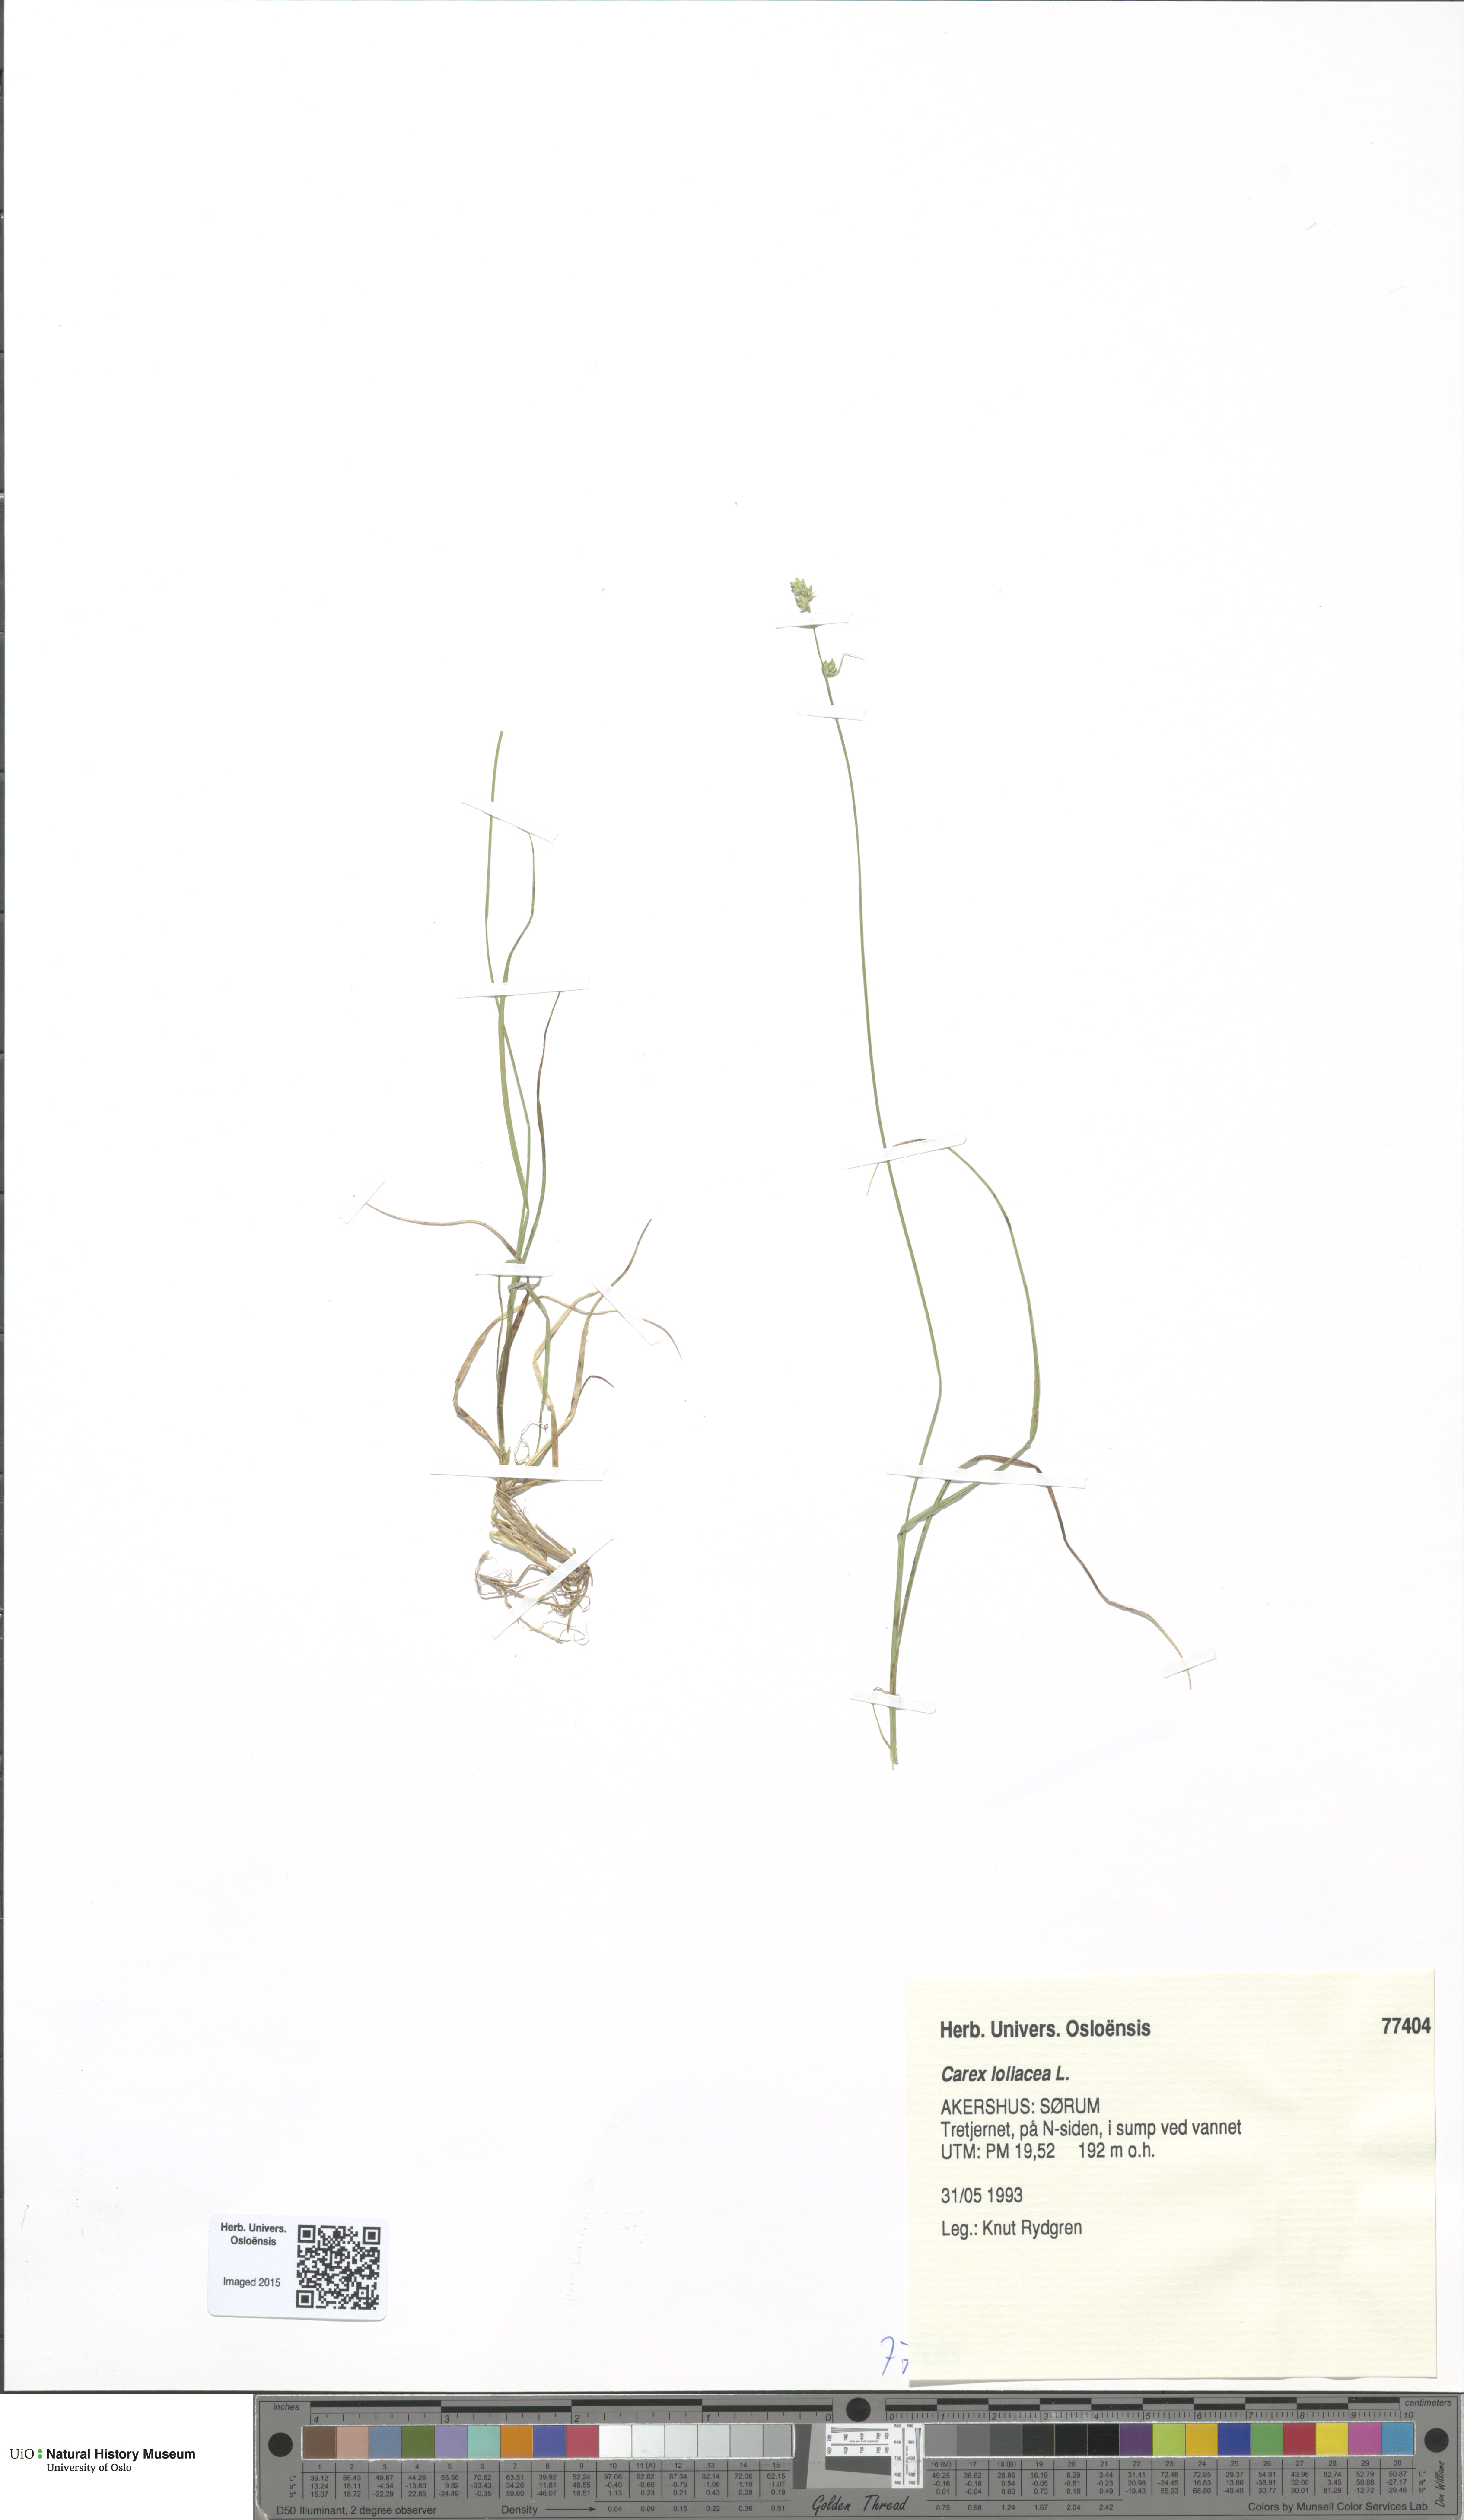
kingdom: Plantae
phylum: Tracheophyta
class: Liliopsida
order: Poales
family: Cyperaceae
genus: Carex
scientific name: Carex loliacea
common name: Ryegrass sedge
